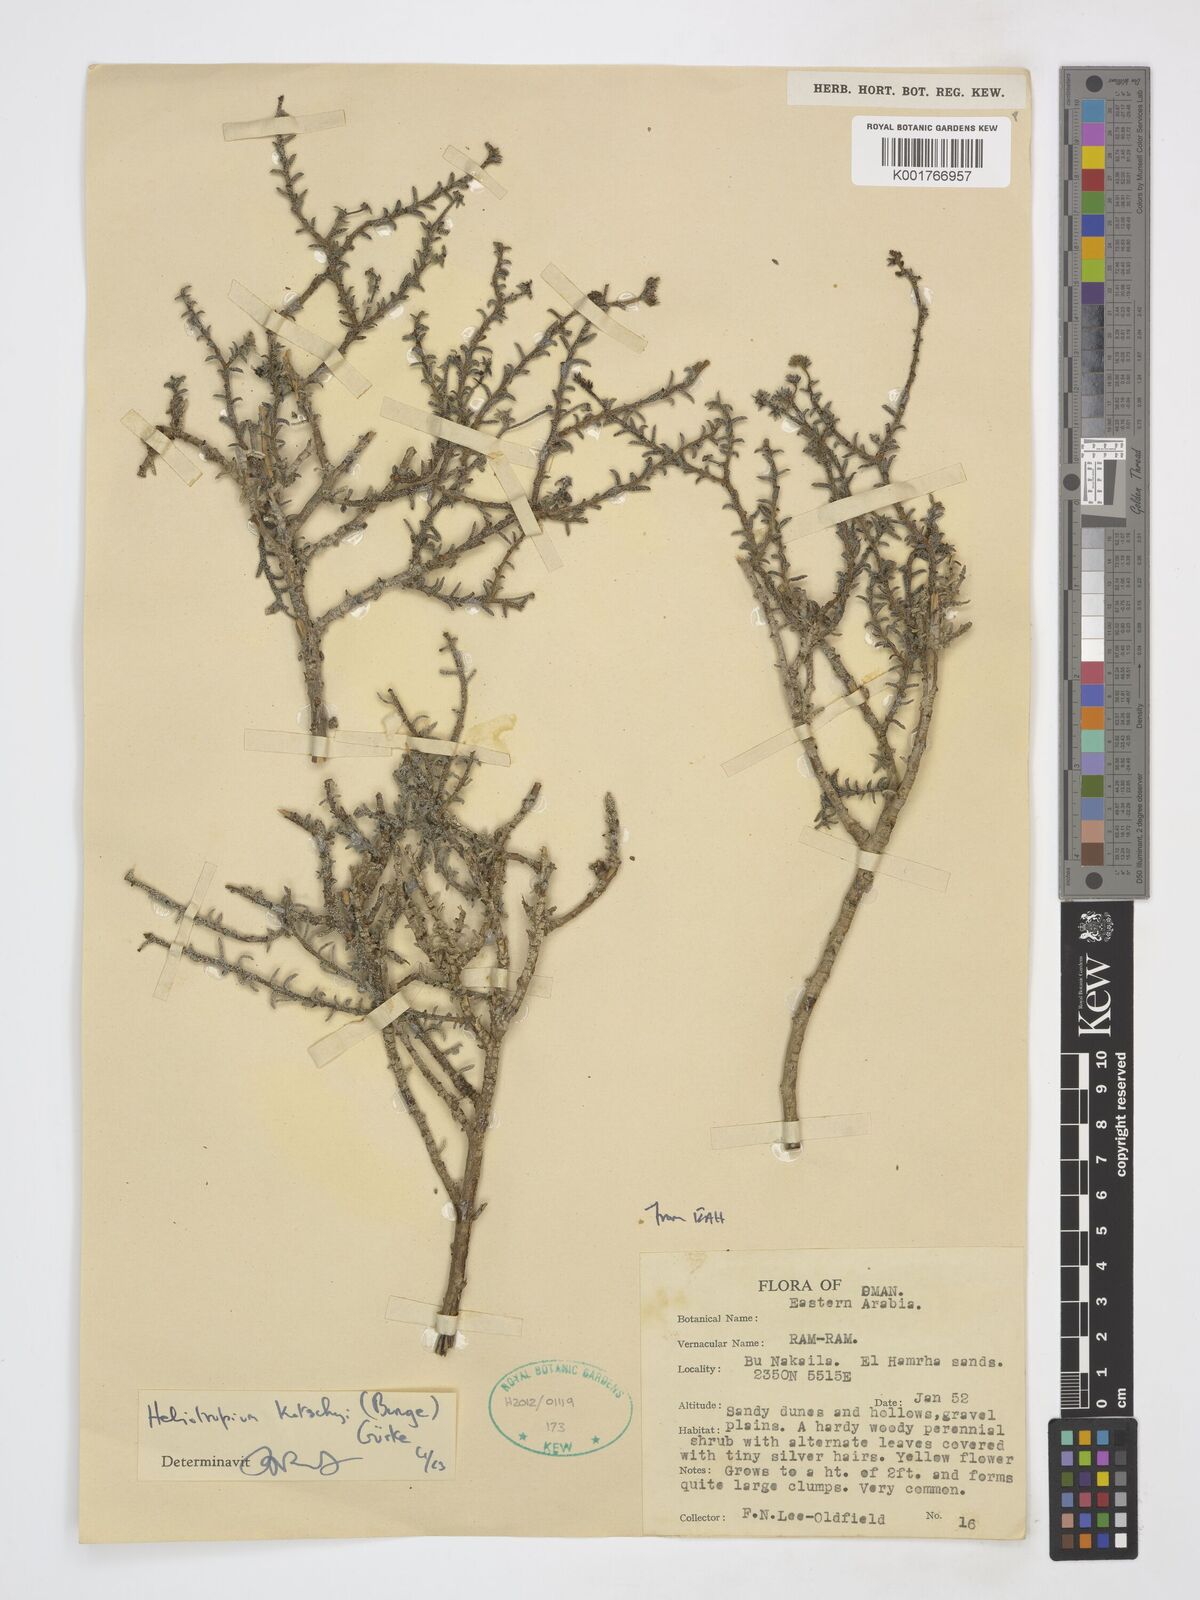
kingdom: Plantae
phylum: Tracheophyta
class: Magnoliopsida
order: Boraginales
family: Heliotropiaceae
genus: Heliotropium
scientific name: Heliotropium bacciferum
